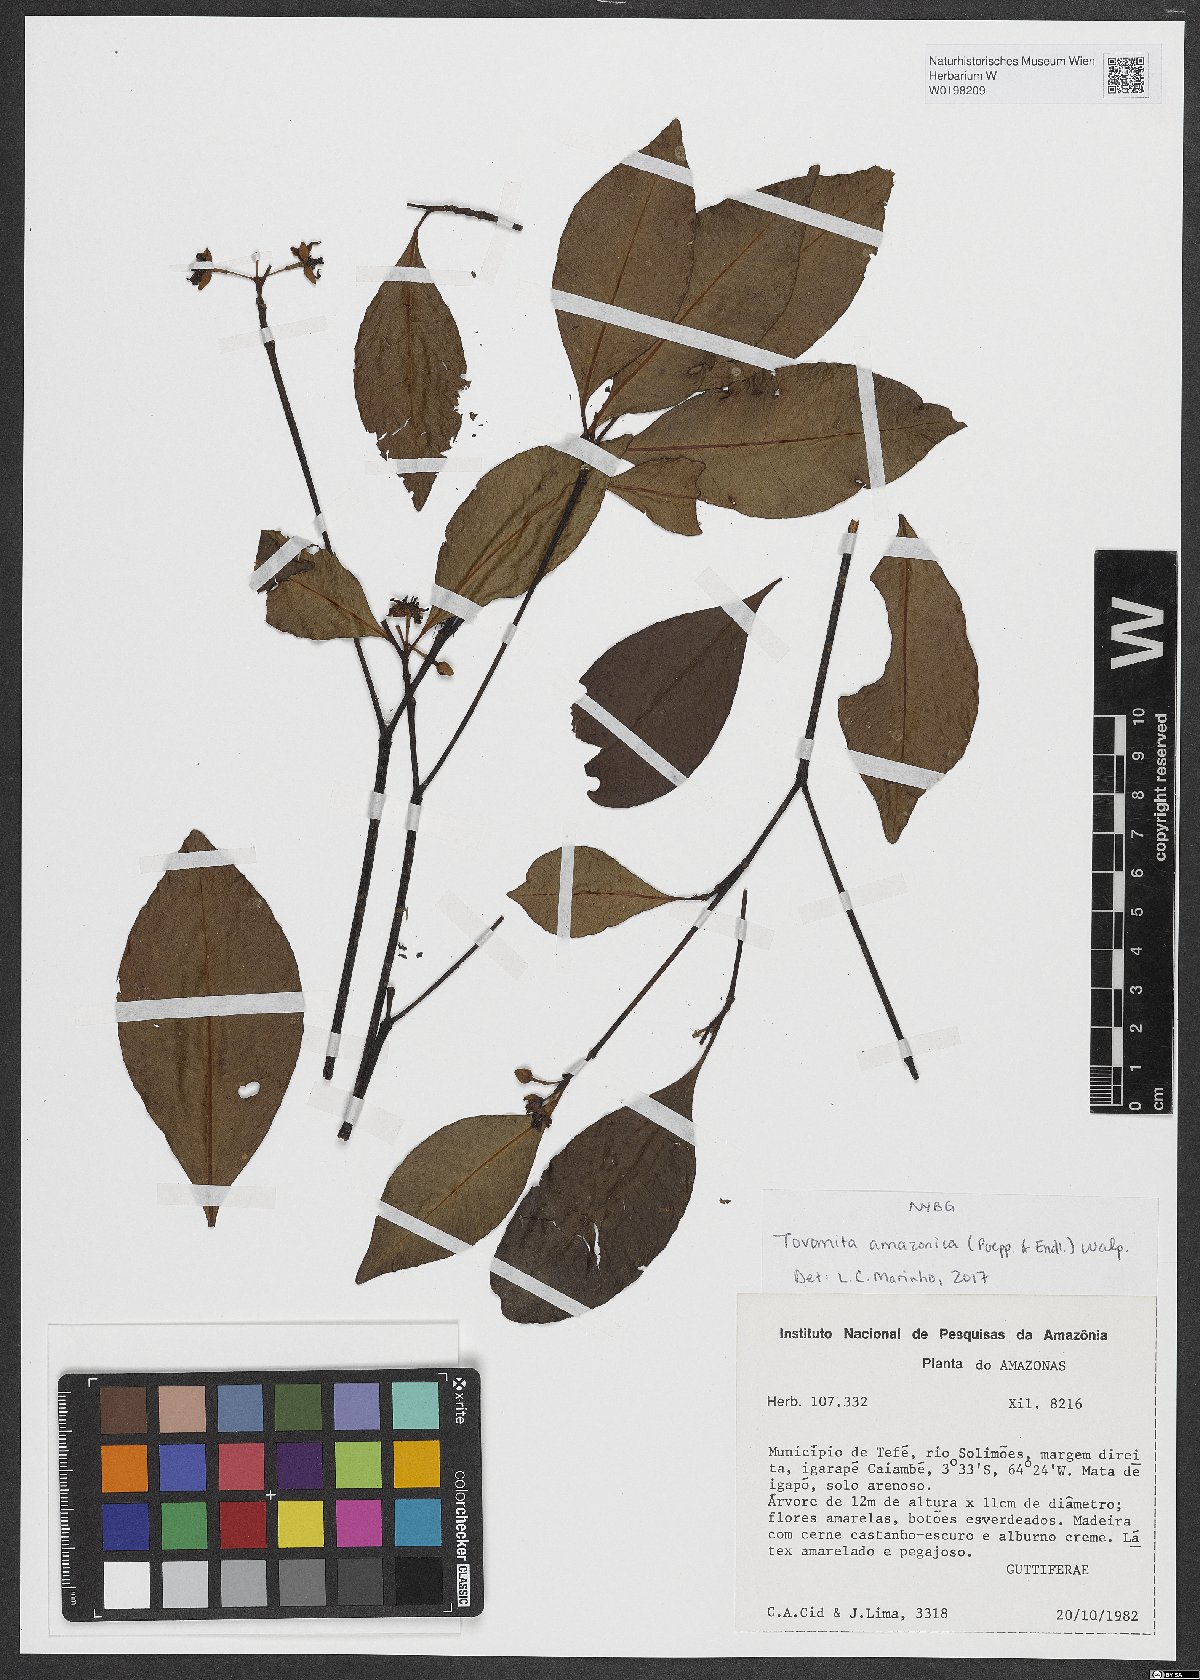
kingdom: Plantae
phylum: Tracheophyta
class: Magnoliopsida
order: Malpighiales
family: Clusiaceae
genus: Tovomita
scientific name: Tovomita amazonica
